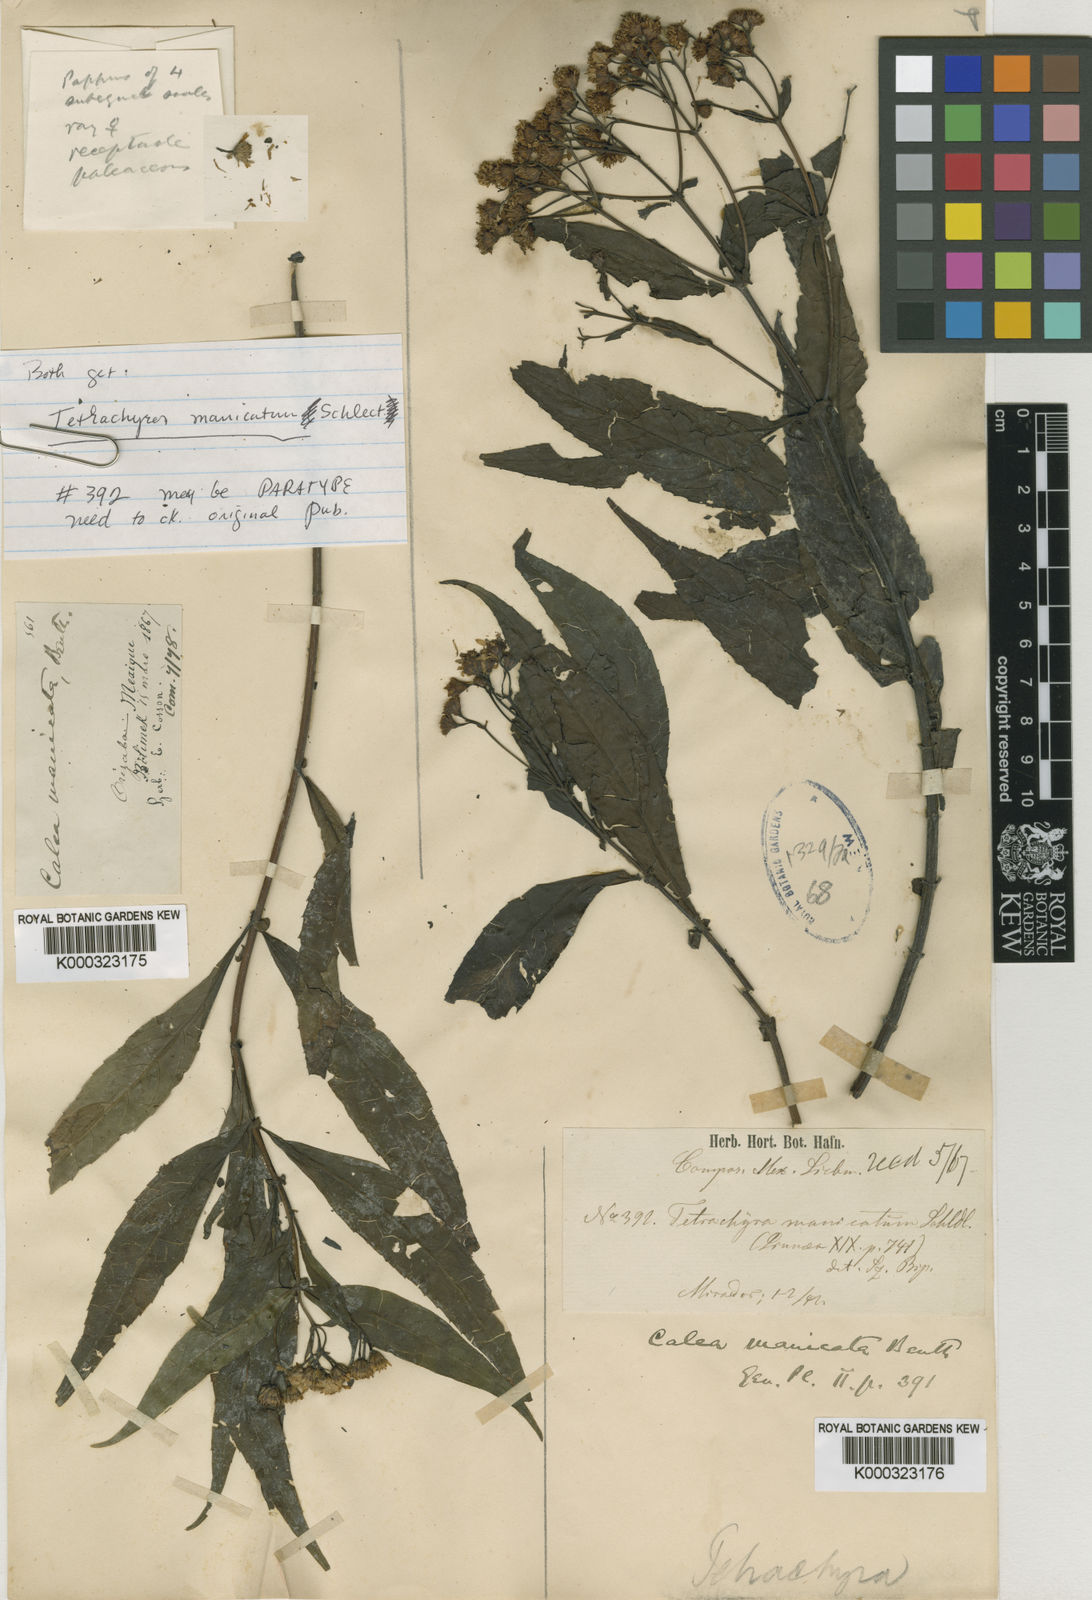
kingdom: Plantae
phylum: Tracheophyta
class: Magnoliopsida
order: Asterales
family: Asteraceae
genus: Tetrachyron
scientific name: Tetrachyron manicatum
